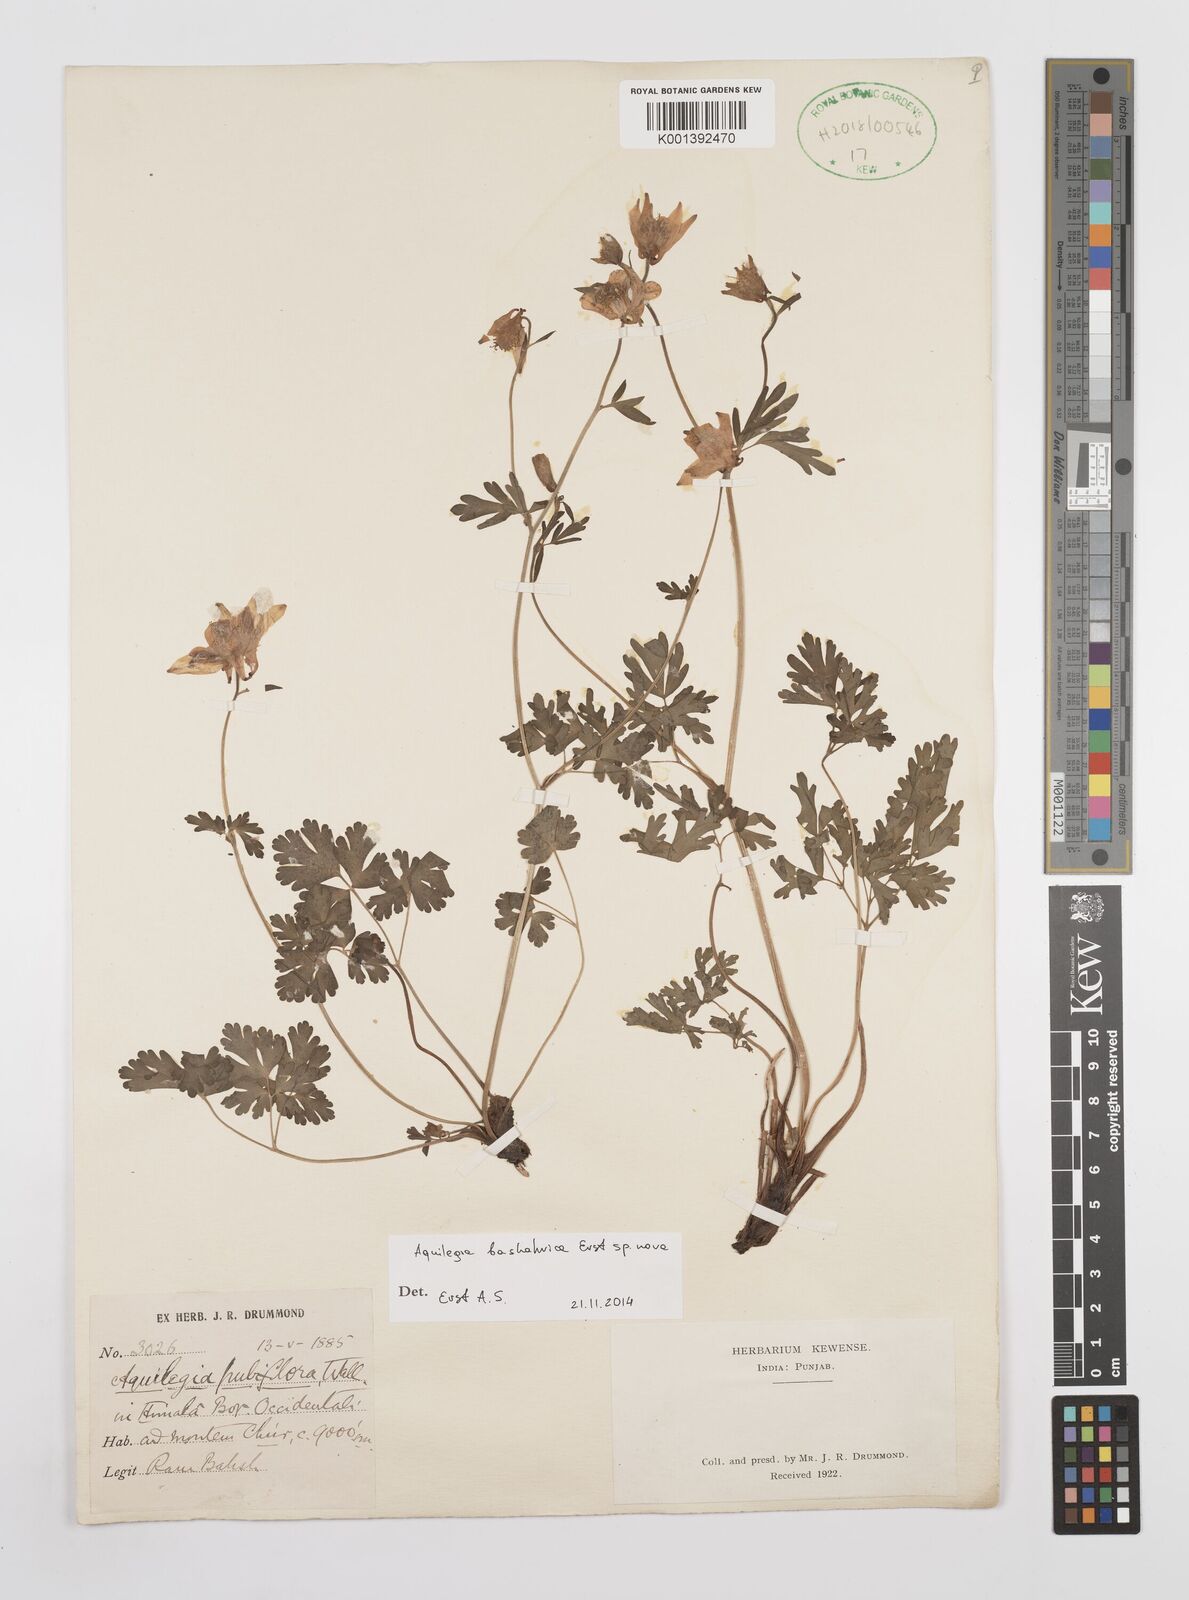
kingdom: Plantae
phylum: Tracheophyta
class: Magnoliopsida
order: Ranunculales
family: Ranunculaceae
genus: Aquilegia
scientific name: Aquilegia
